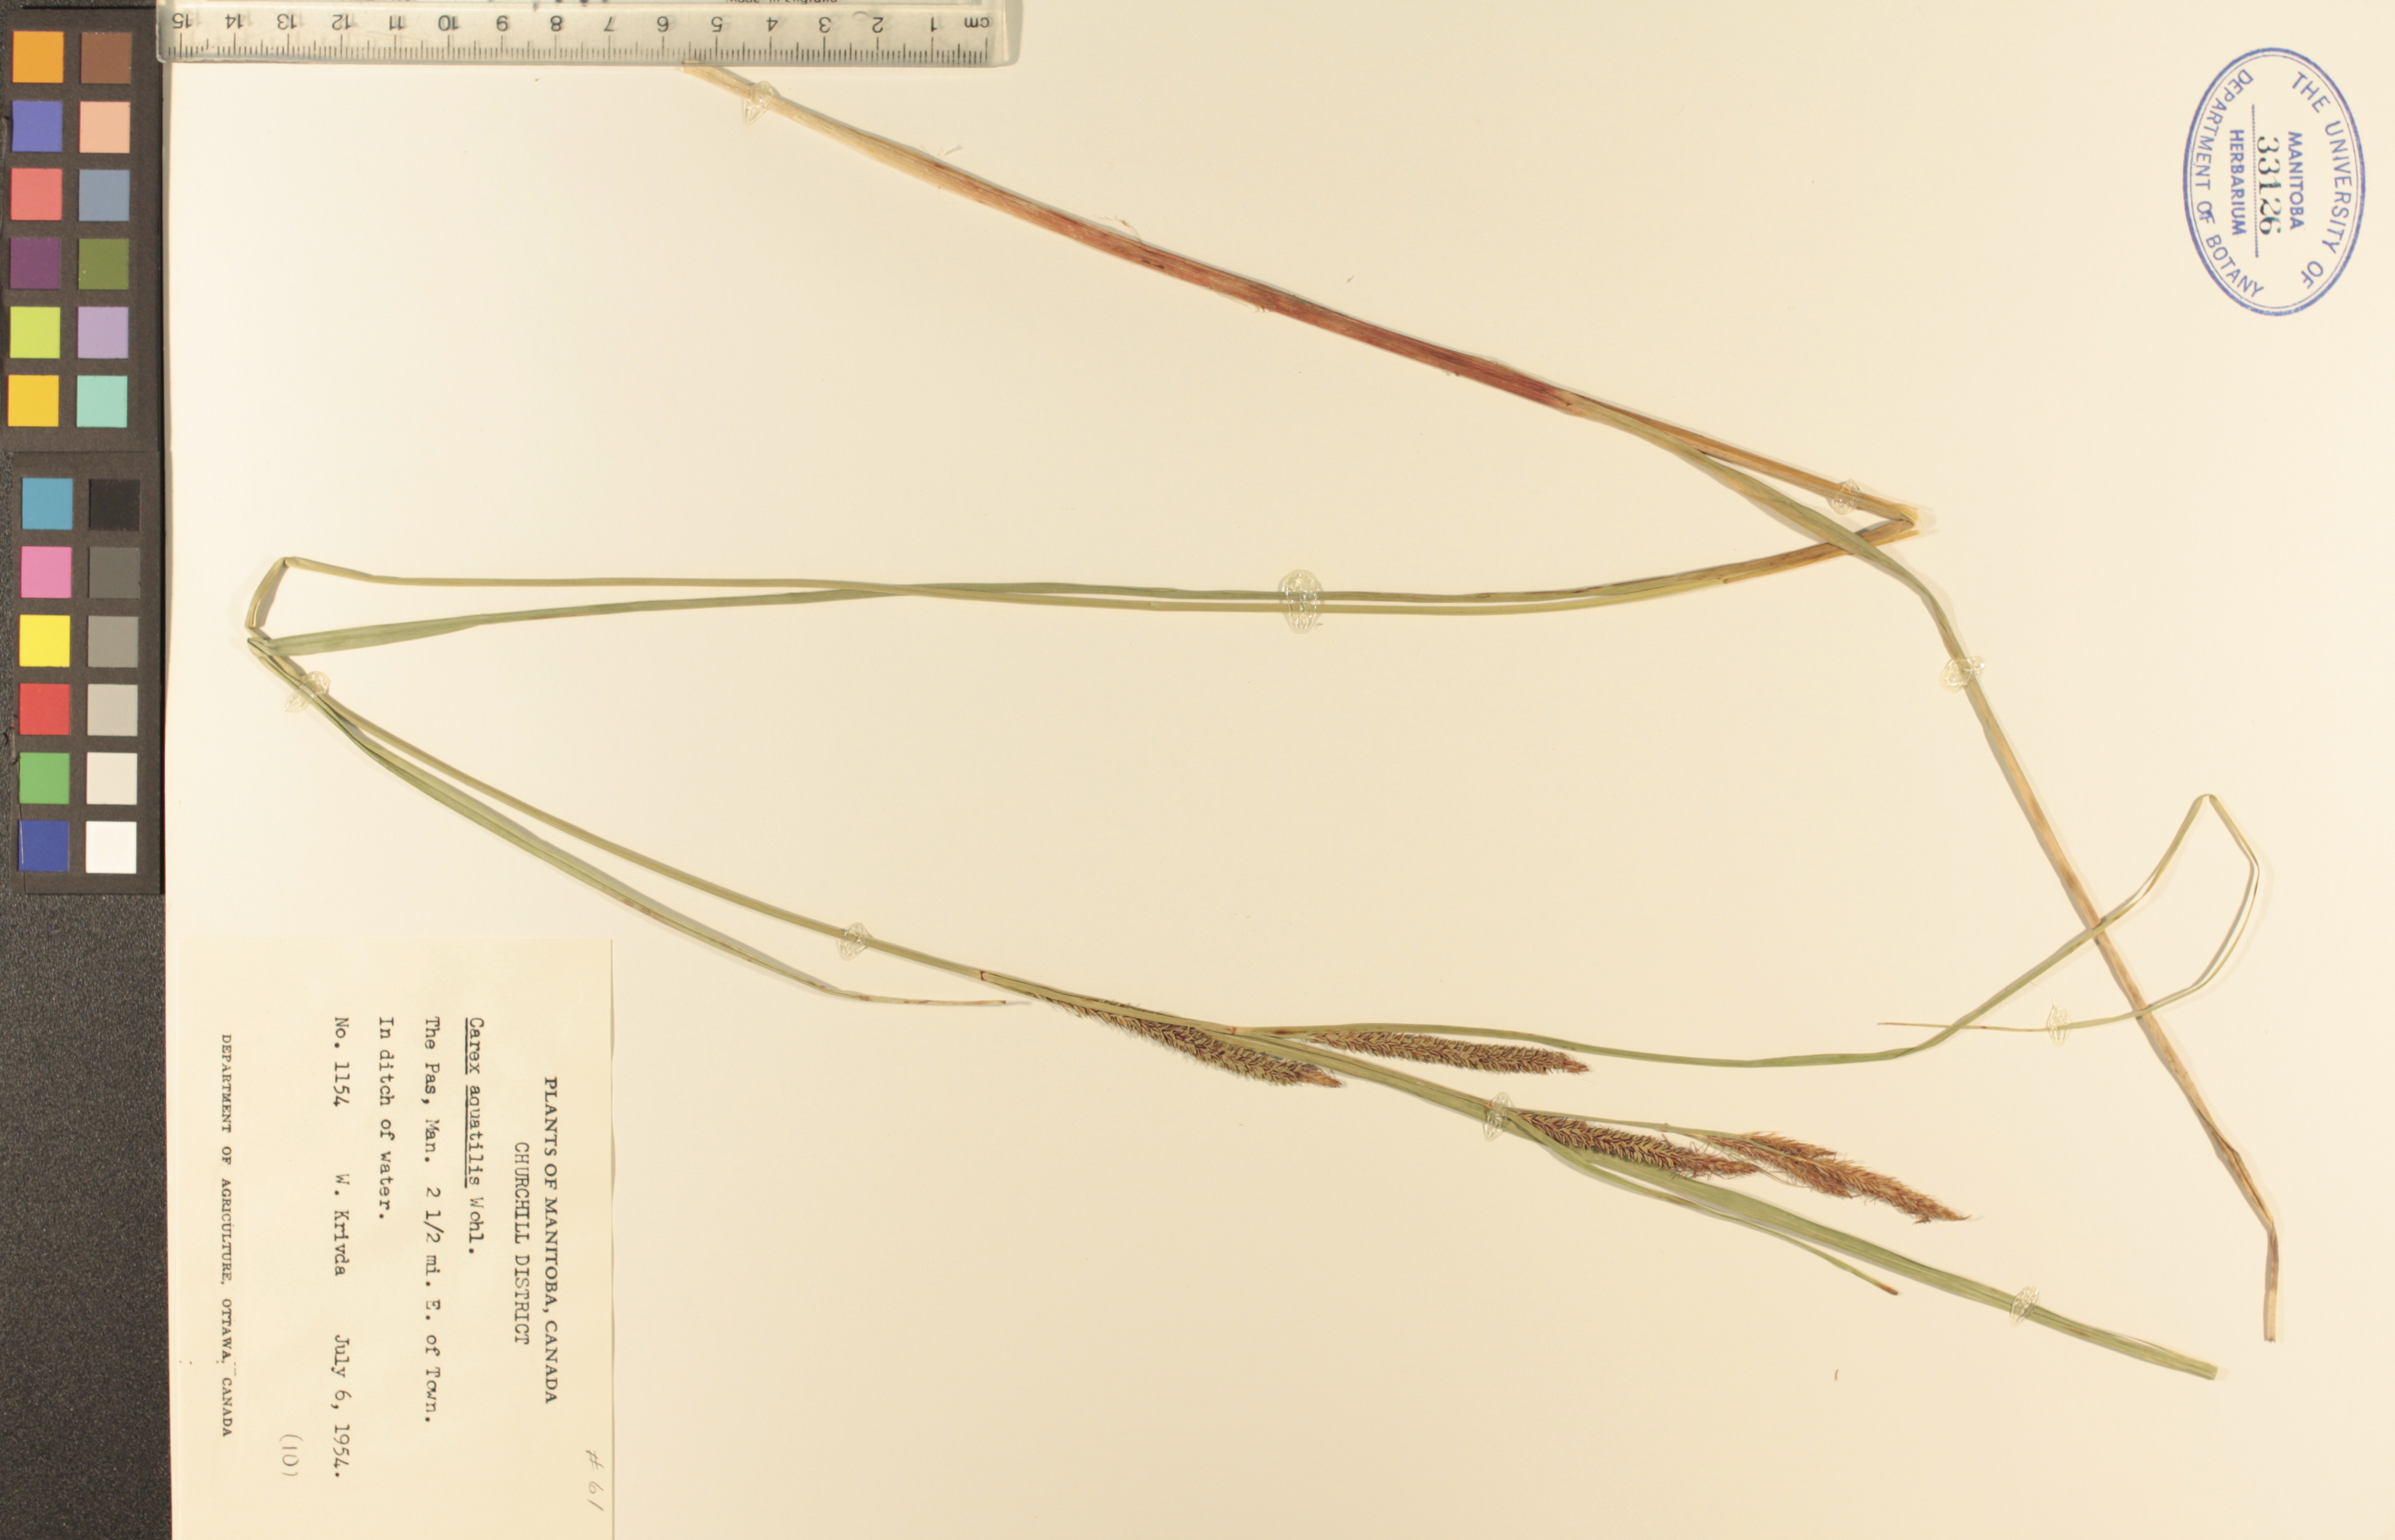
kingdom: Plantae
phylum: Tracheophyta
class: Liliopsida
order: Poales
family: Cyperaceae
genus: Carex
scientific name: Carex aquatilis
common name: Water sedge
